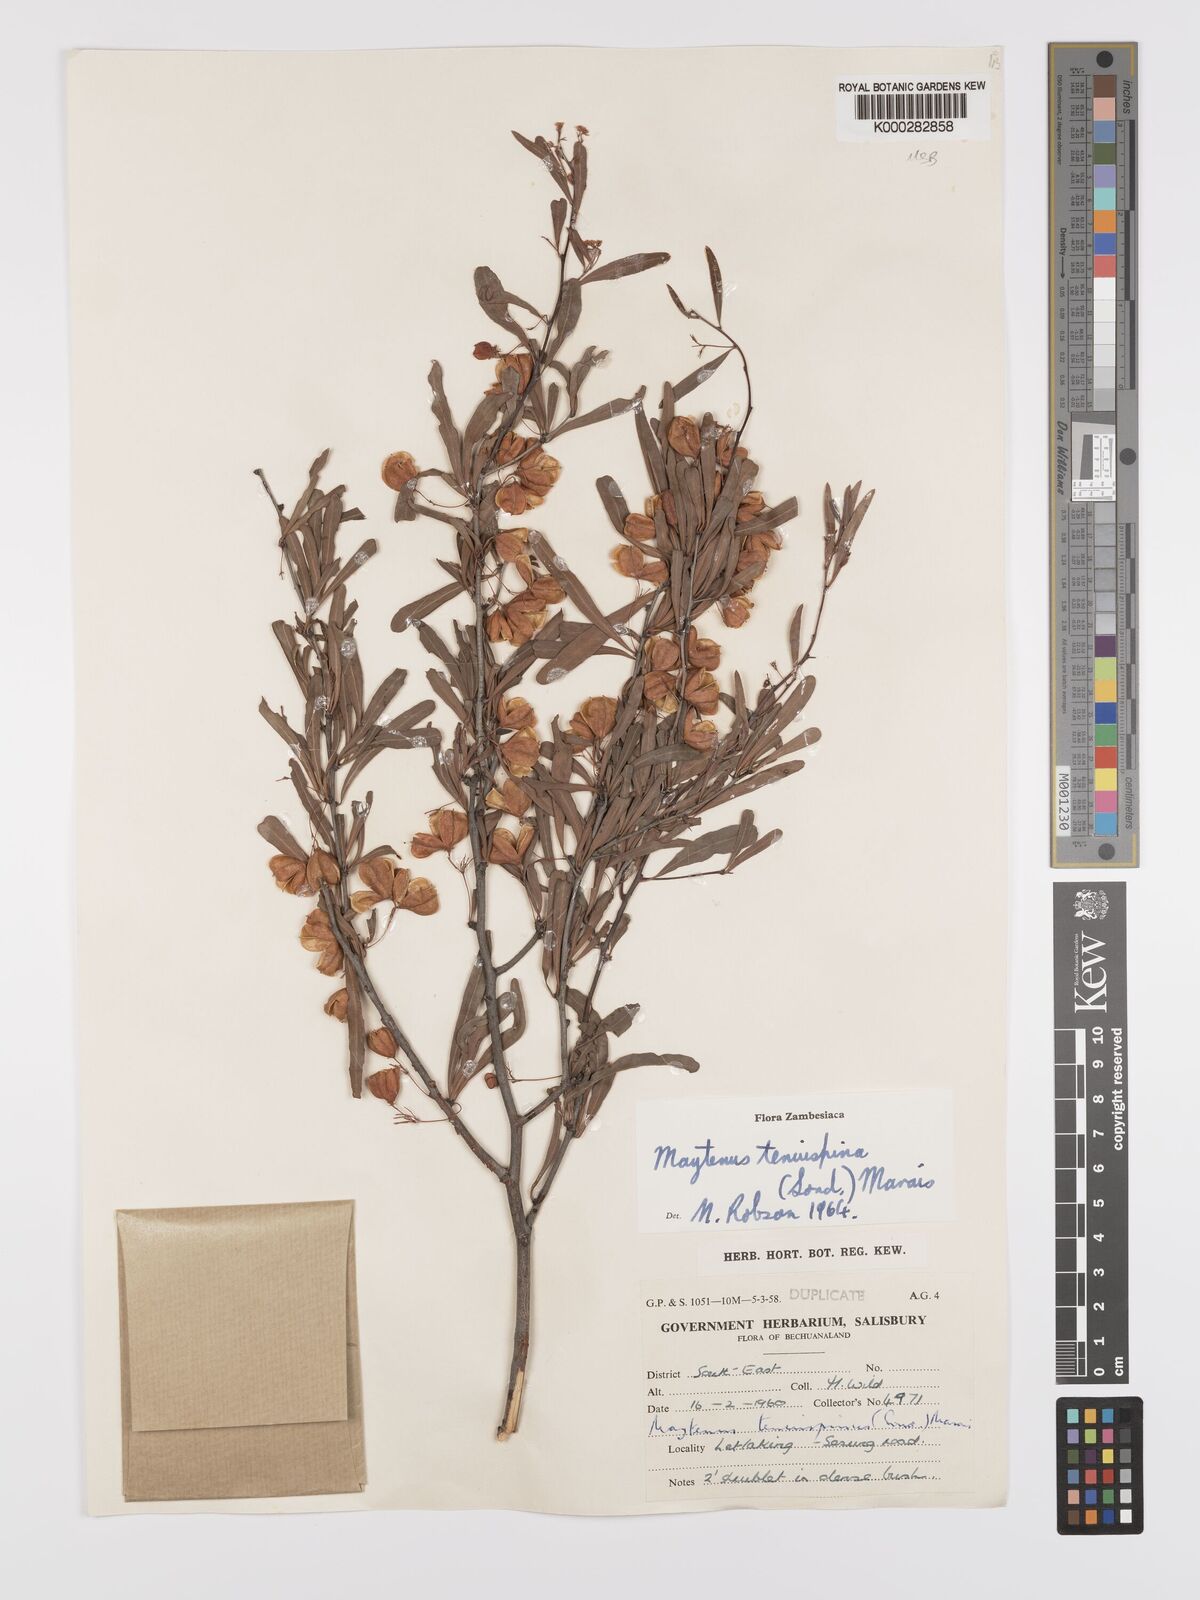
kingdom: Plantae
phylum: Tracheophyta
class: Magnoliopsida
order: Celastrales
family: Celastraceae
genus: Gymnosporia
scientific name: Gymnosporia tenuispina
